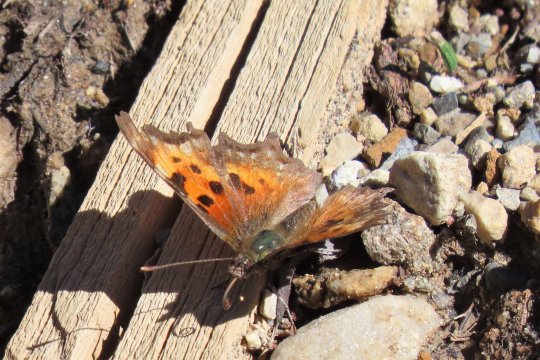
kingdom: Animalia
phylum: Arthropoda
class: Insecta
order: Lepidoptera
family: Nymphalidae
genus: Polygonia
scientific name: Polygonia faunus
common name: Green Comma
